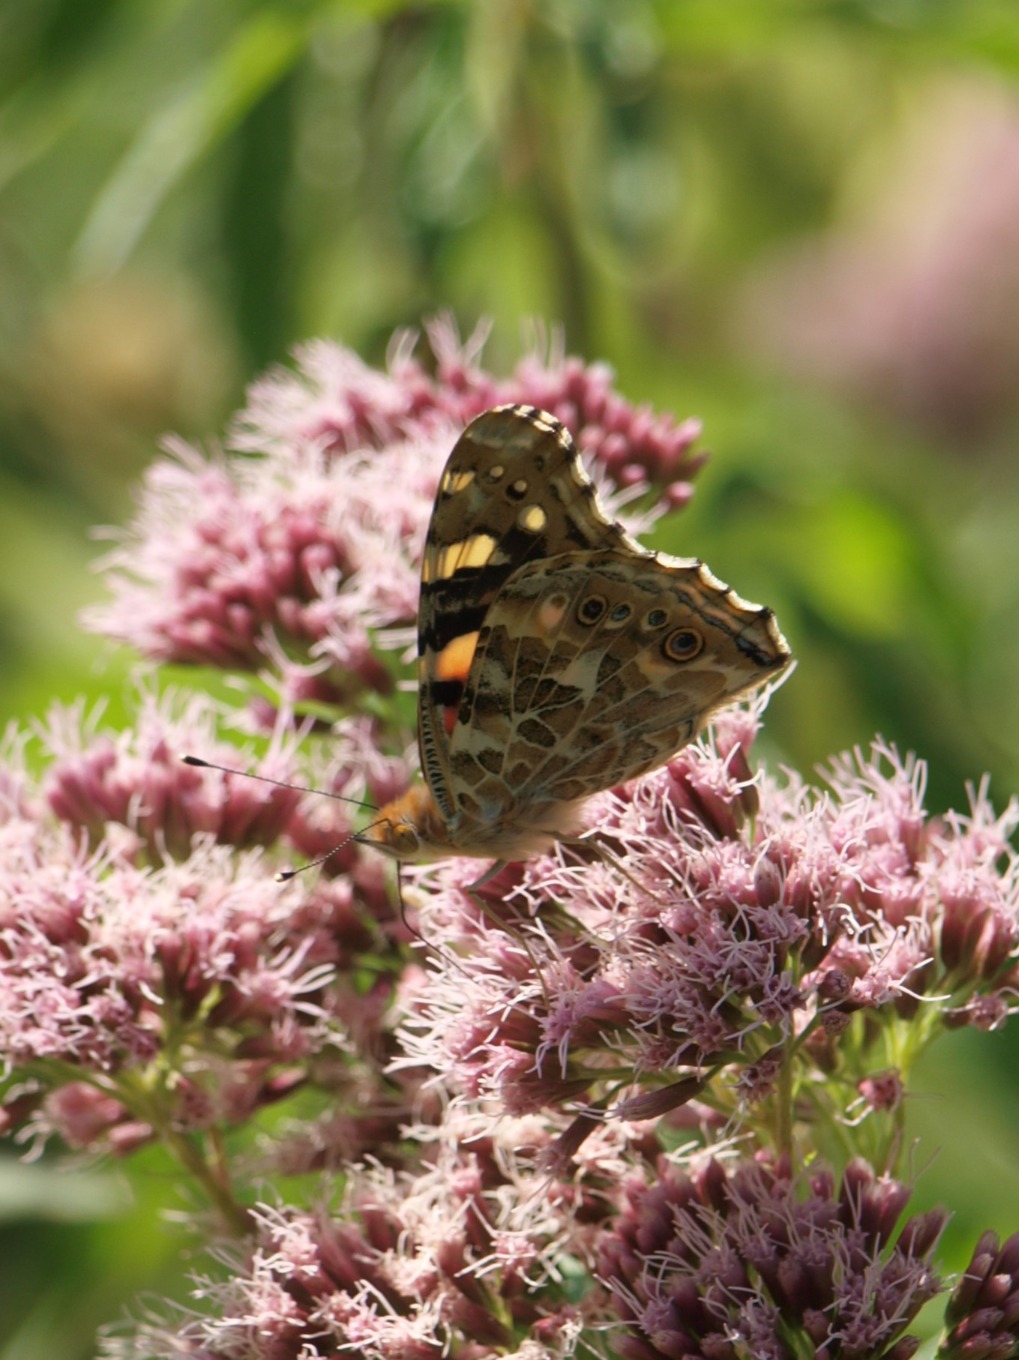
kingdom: Animalia
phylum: Arthropoda
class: Insecta
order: Lepidoptera
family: Nymphalidae
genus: Vanessa
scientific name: Vanessa cardui
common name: Tidselsommerfugl
